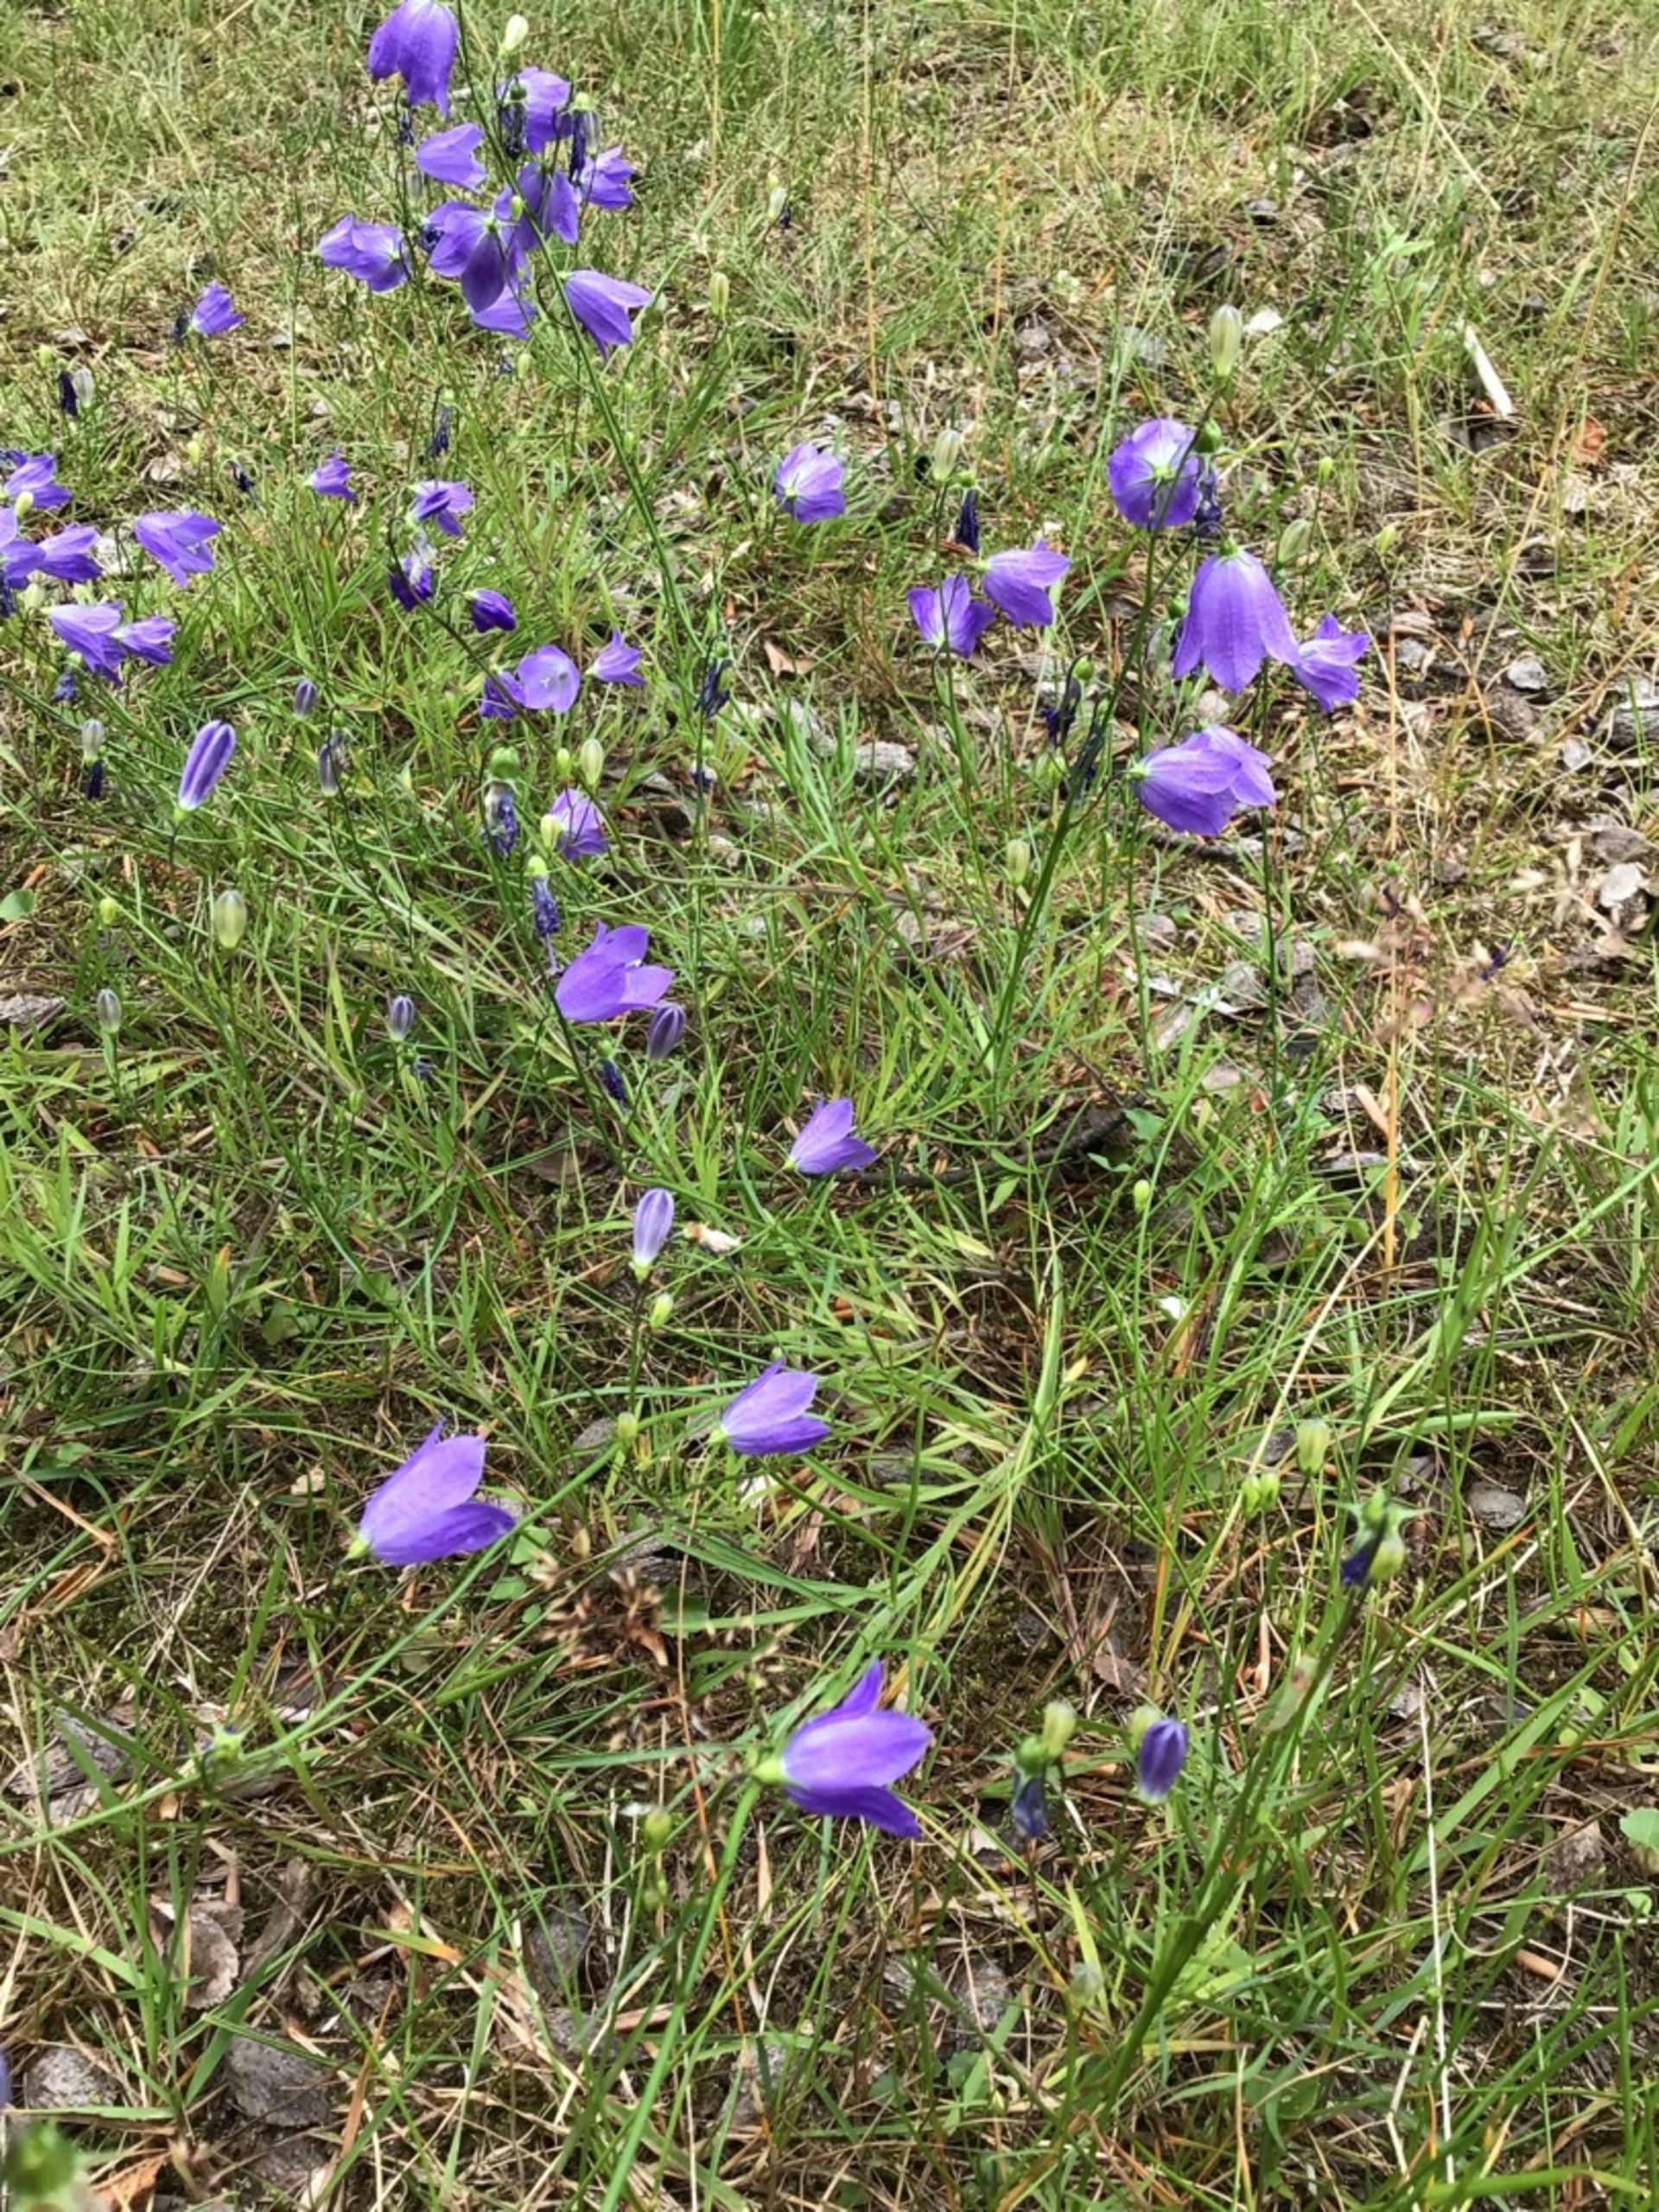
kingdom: Plantae
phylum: Tracheophyta
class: Magnoliopsida
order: Asterales
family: Campanulaceae
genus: Campanula
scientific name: Campanula rotundifolia
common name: Liden klokke
